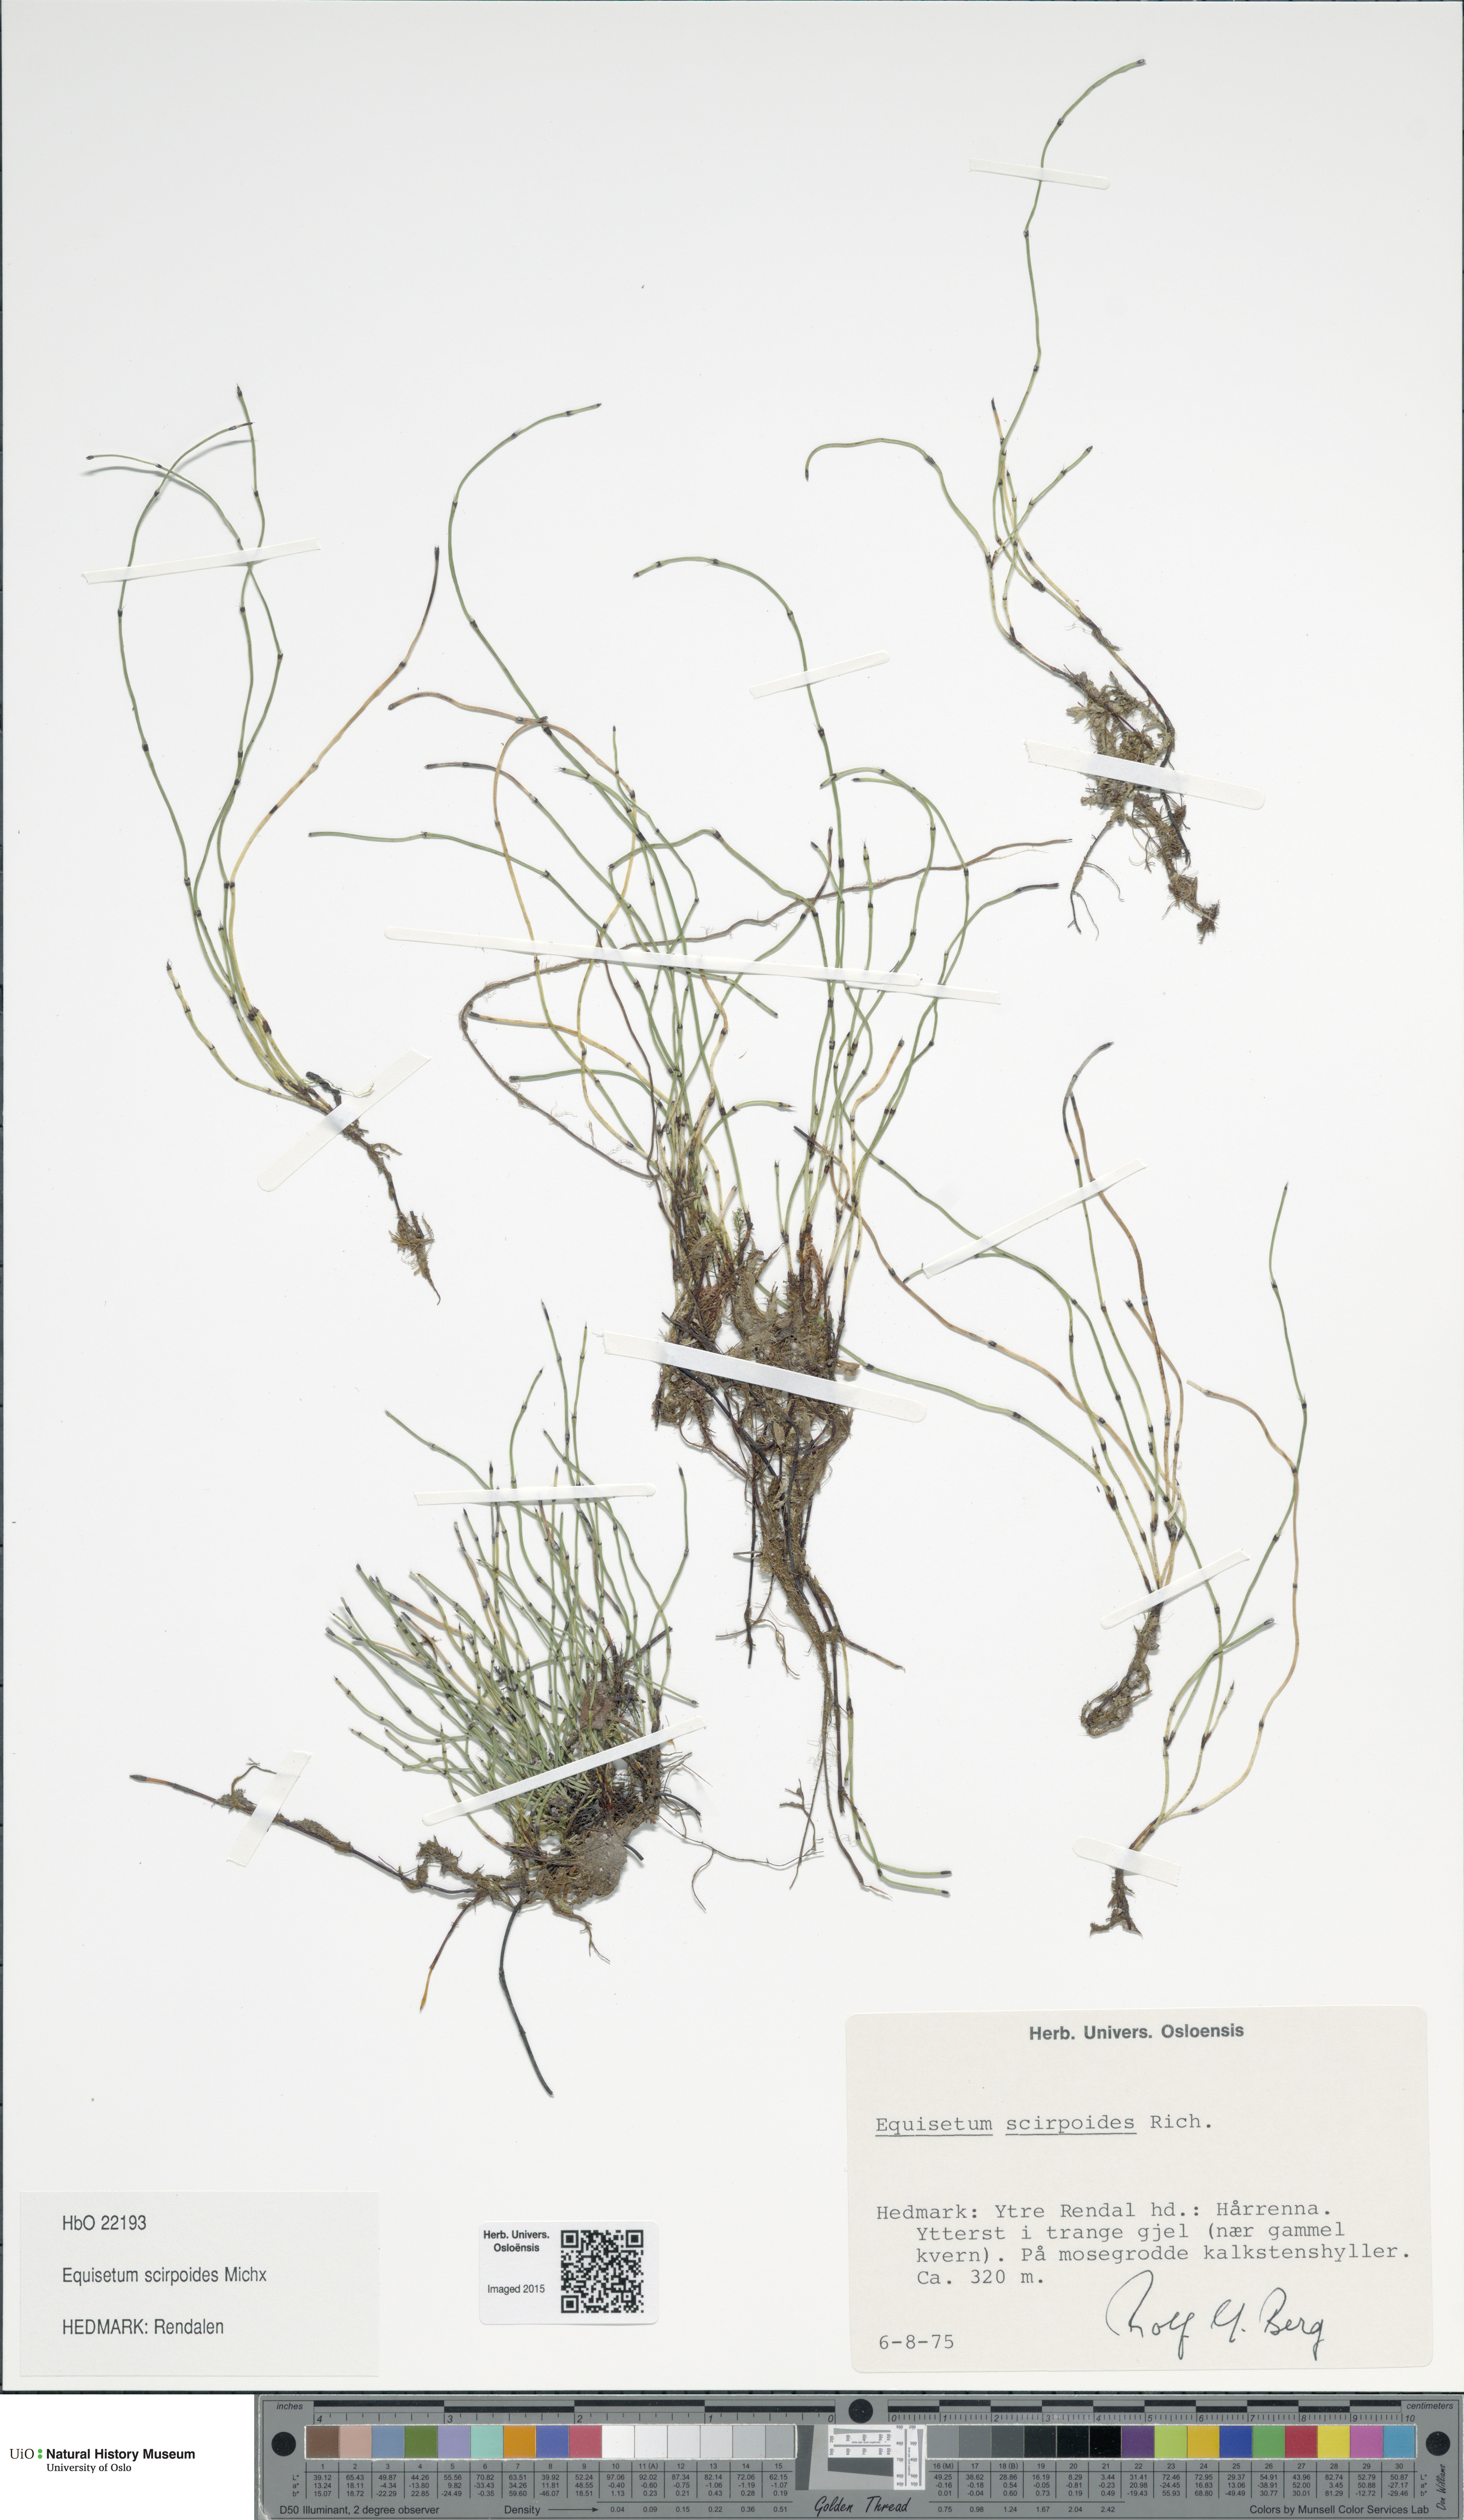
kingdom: Plantae
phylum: Tracheophyta
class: Polypodiopsida
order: Equisetales
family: Equisetaceae
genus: Equisetum
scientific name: Equisetum scirpoides
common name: Delicate horsetail
